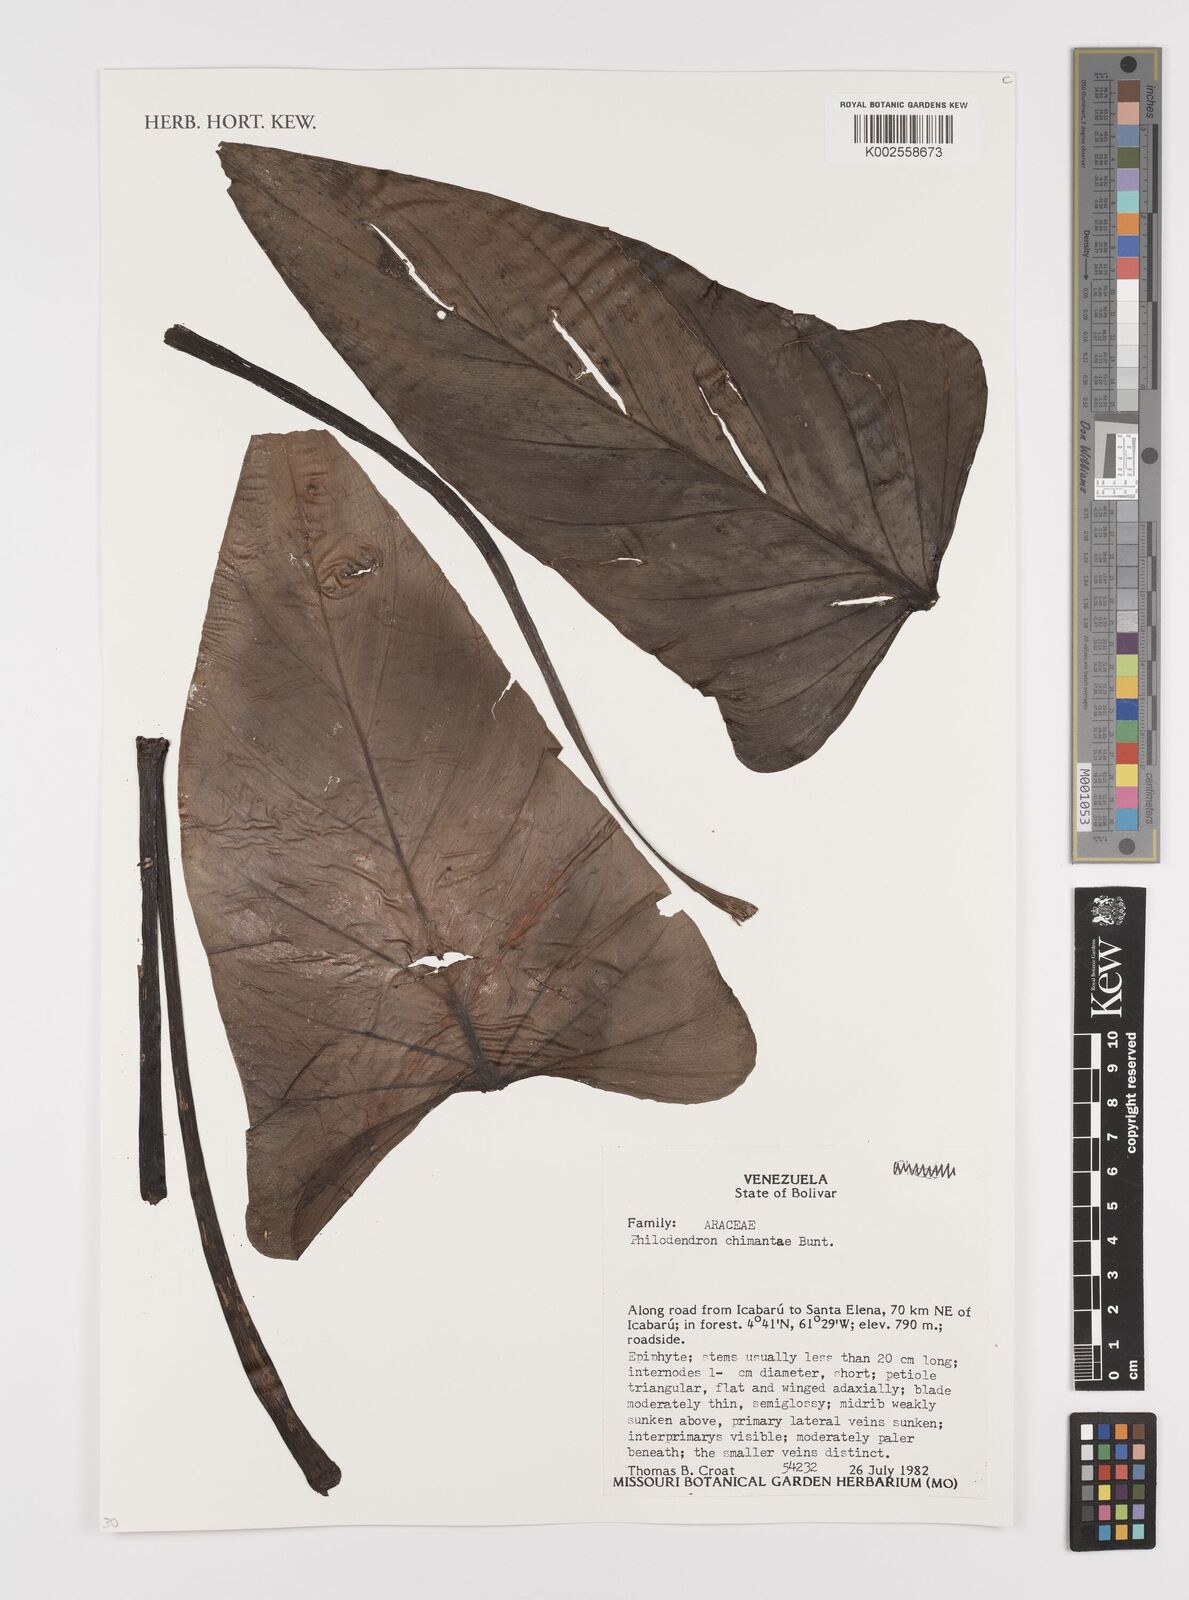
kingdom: Plantae
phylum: Tracheophyta
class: Liliopsida
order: Alismatales
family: Araceae
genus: Philodendron
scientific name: Philodendron chimantae
